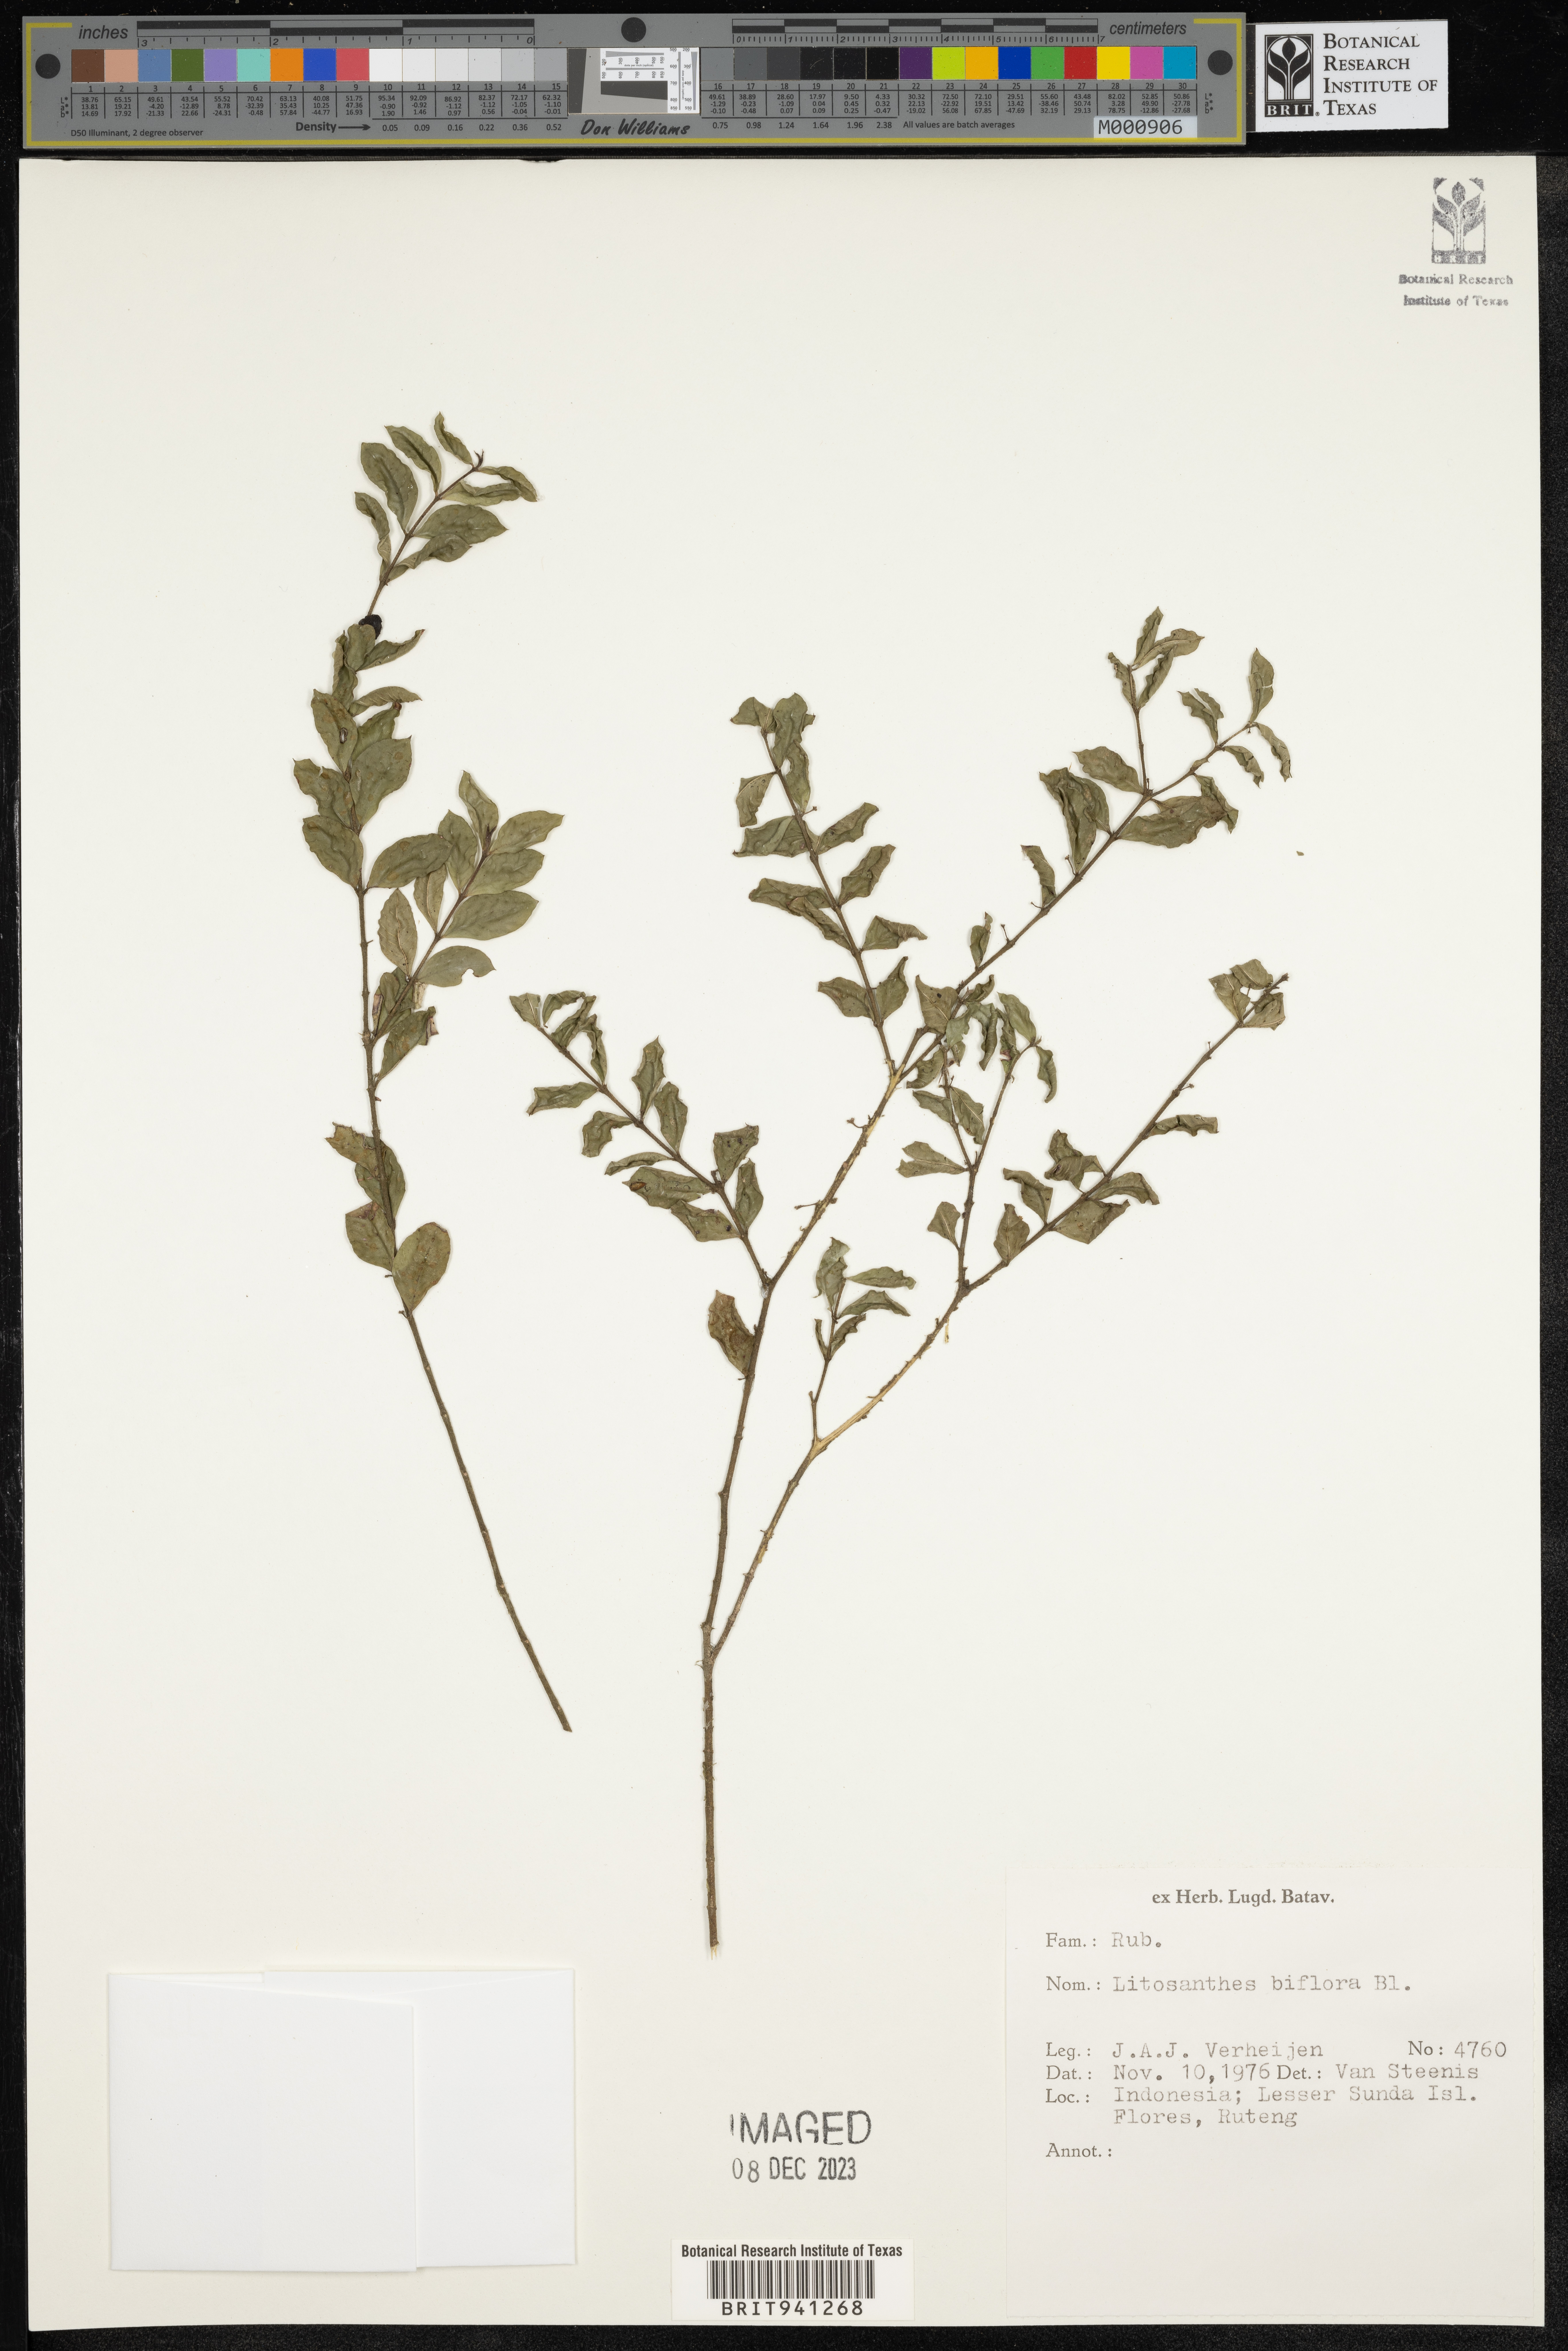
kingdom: Plantae
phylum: Tracheophyta
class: Magnoliopsida
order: Gentianales
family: Rubiaceae
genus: Lasianthus
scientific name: Lasianthus
